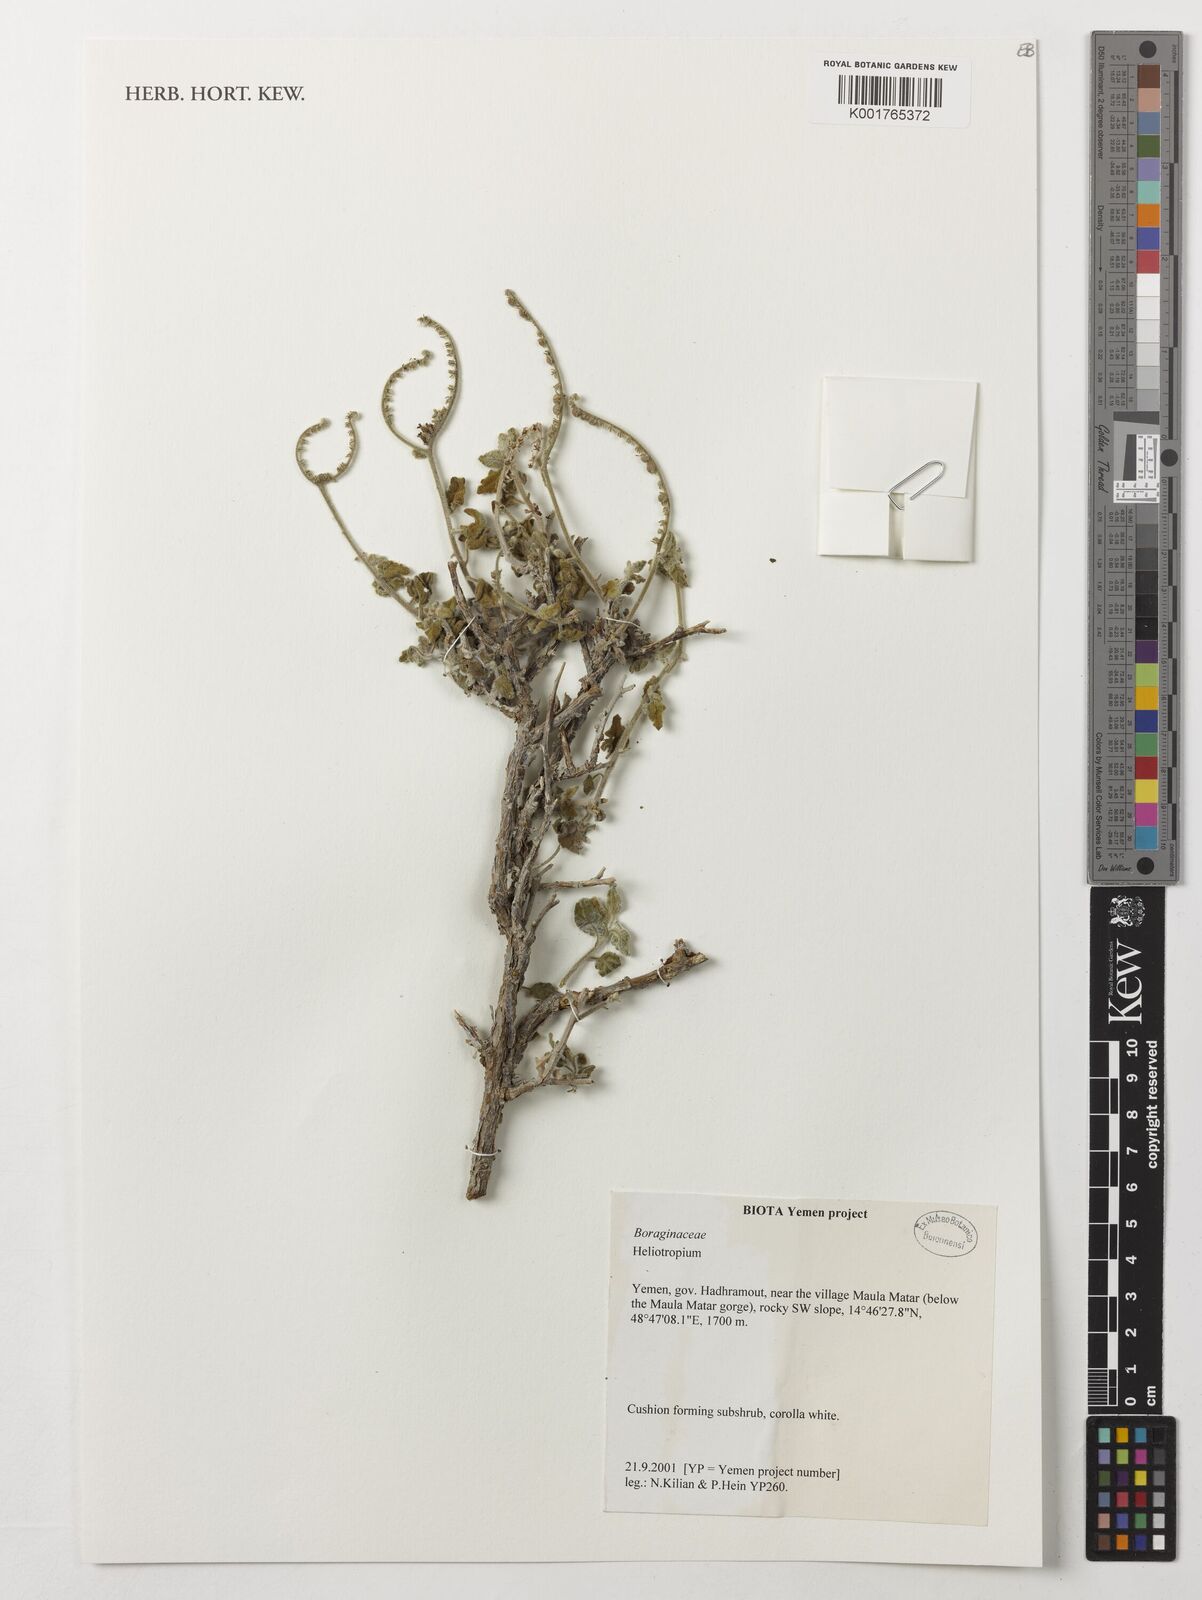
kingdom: Plantae
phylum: Tracheophyta
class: Magnoliopsida
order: Boraginales
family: Heliotropiaceae
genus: Heliotropium
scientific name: Heliotropium
